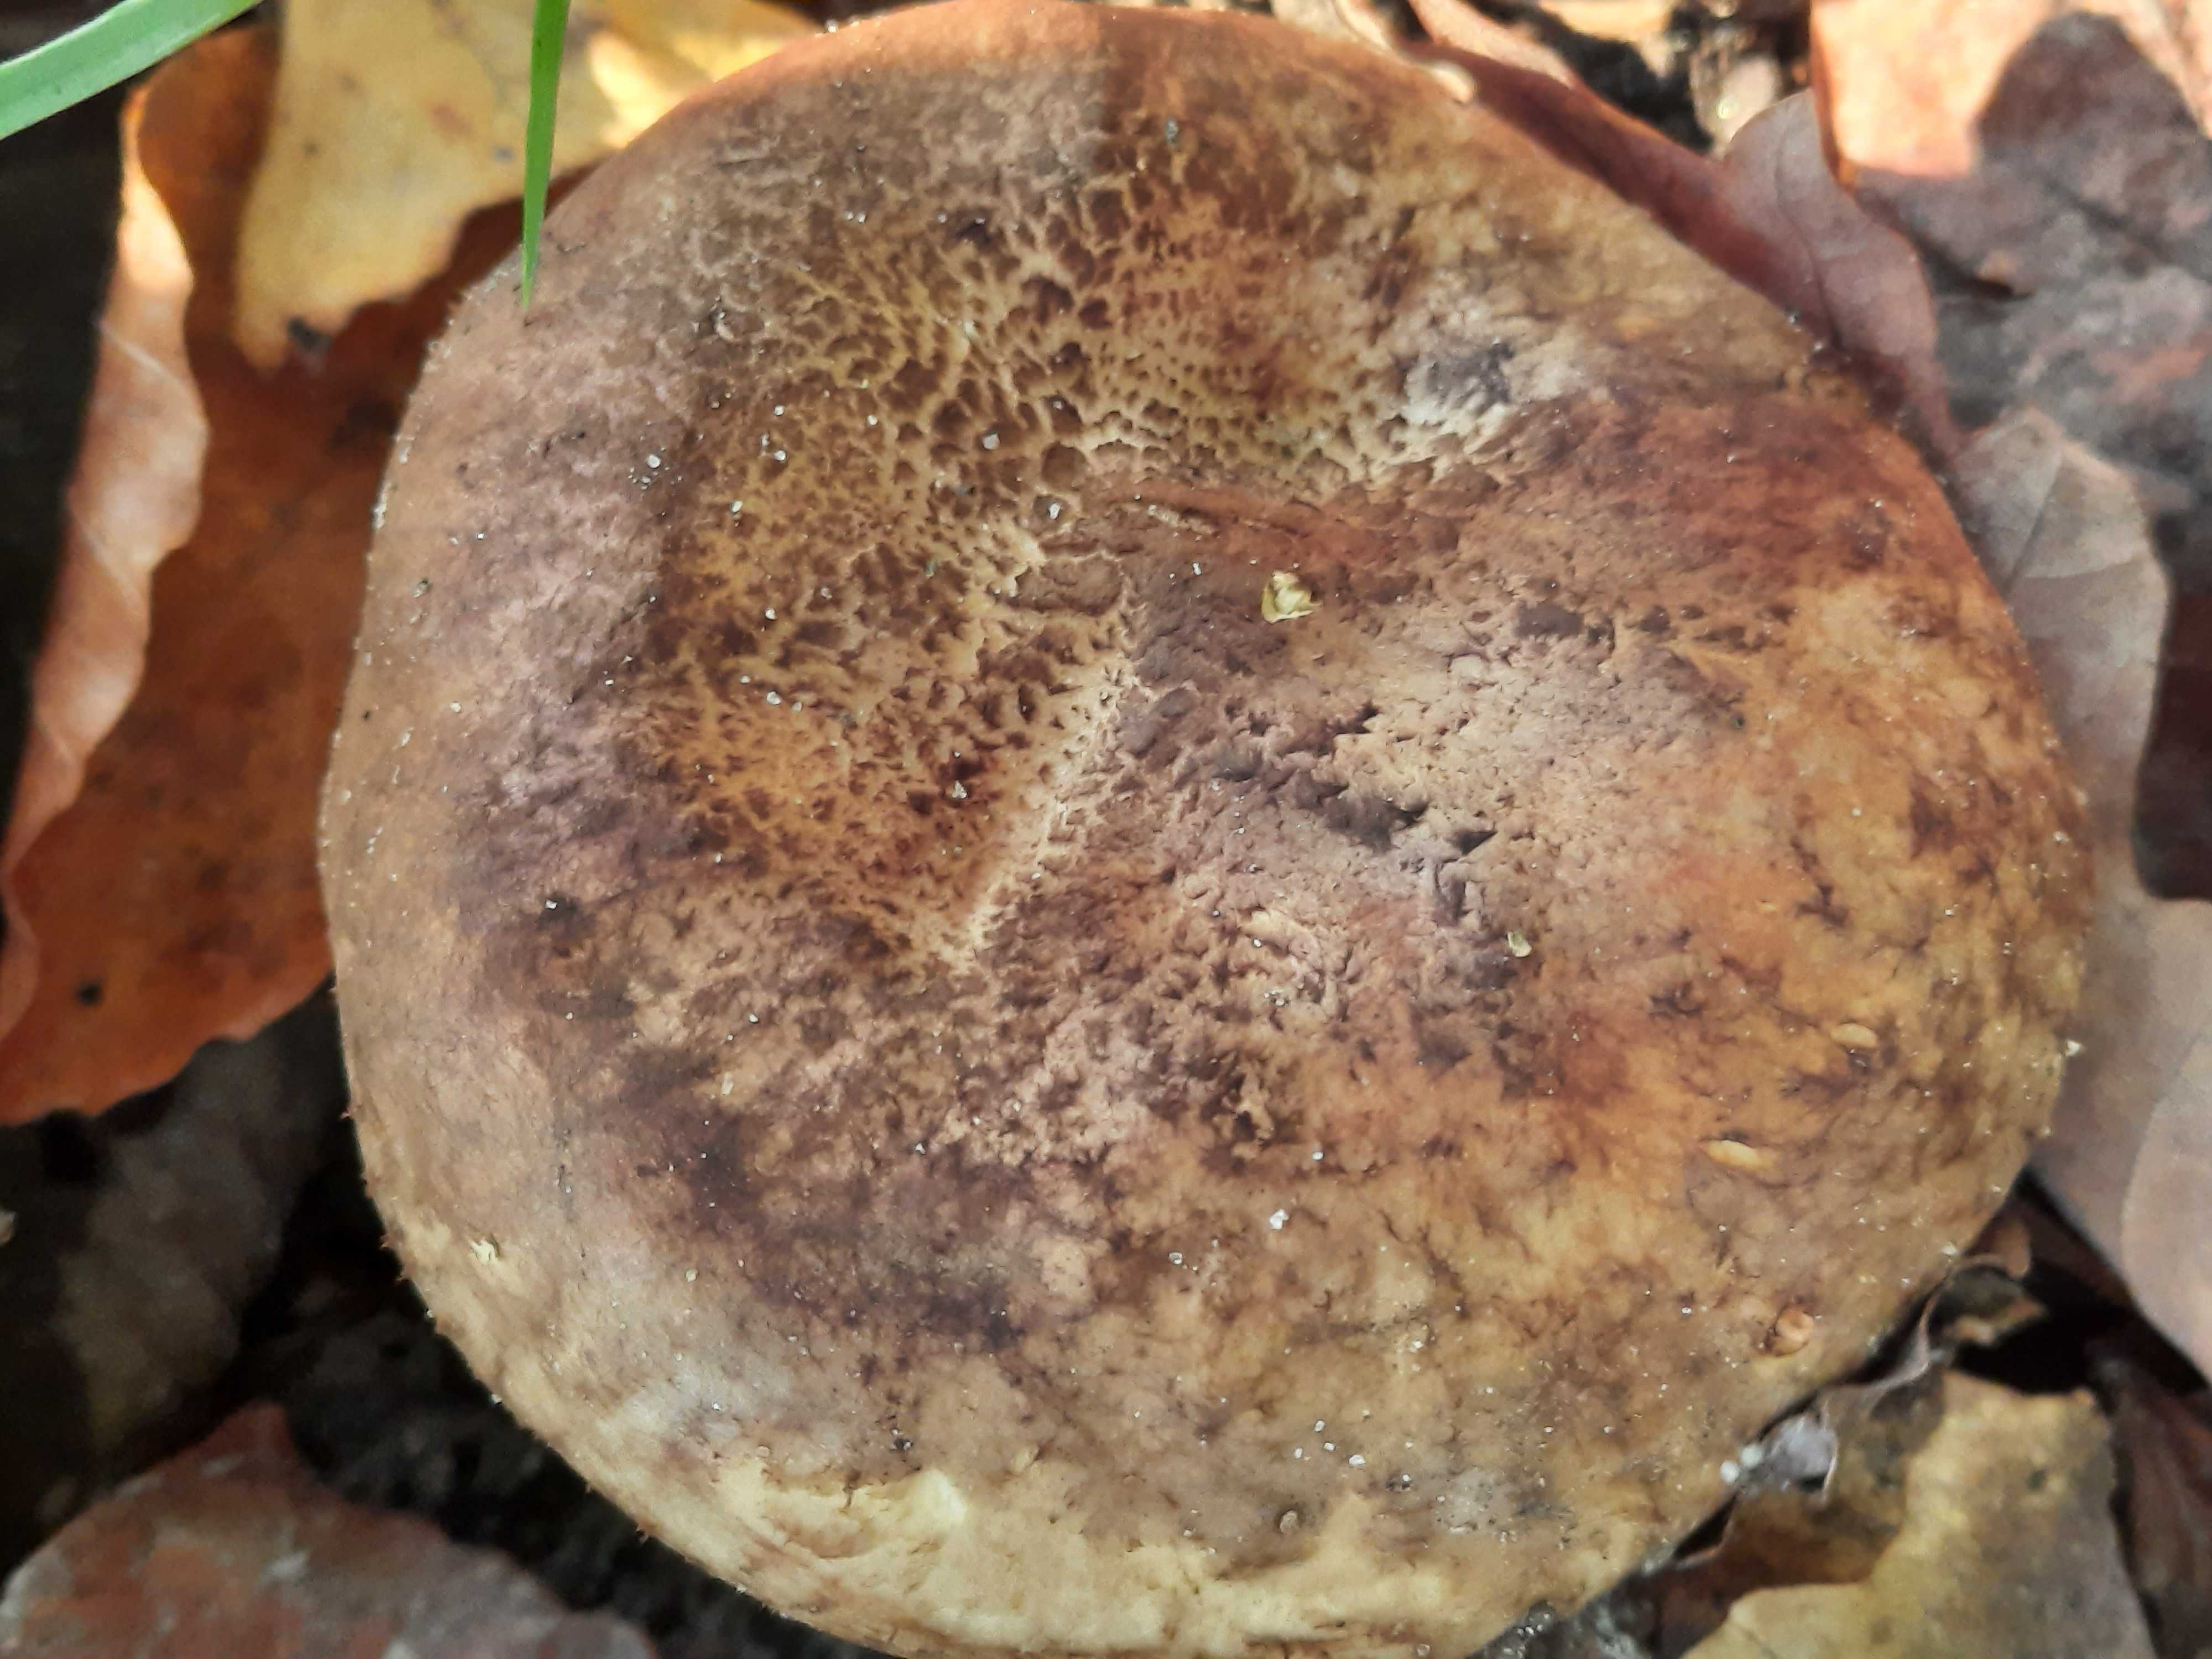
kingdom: Fungi
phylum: Basidiomycota
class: Agaricomycetes
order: Boletales
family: Paxillaceae
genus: Paxillus
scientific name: Paxillus rubicundulus
